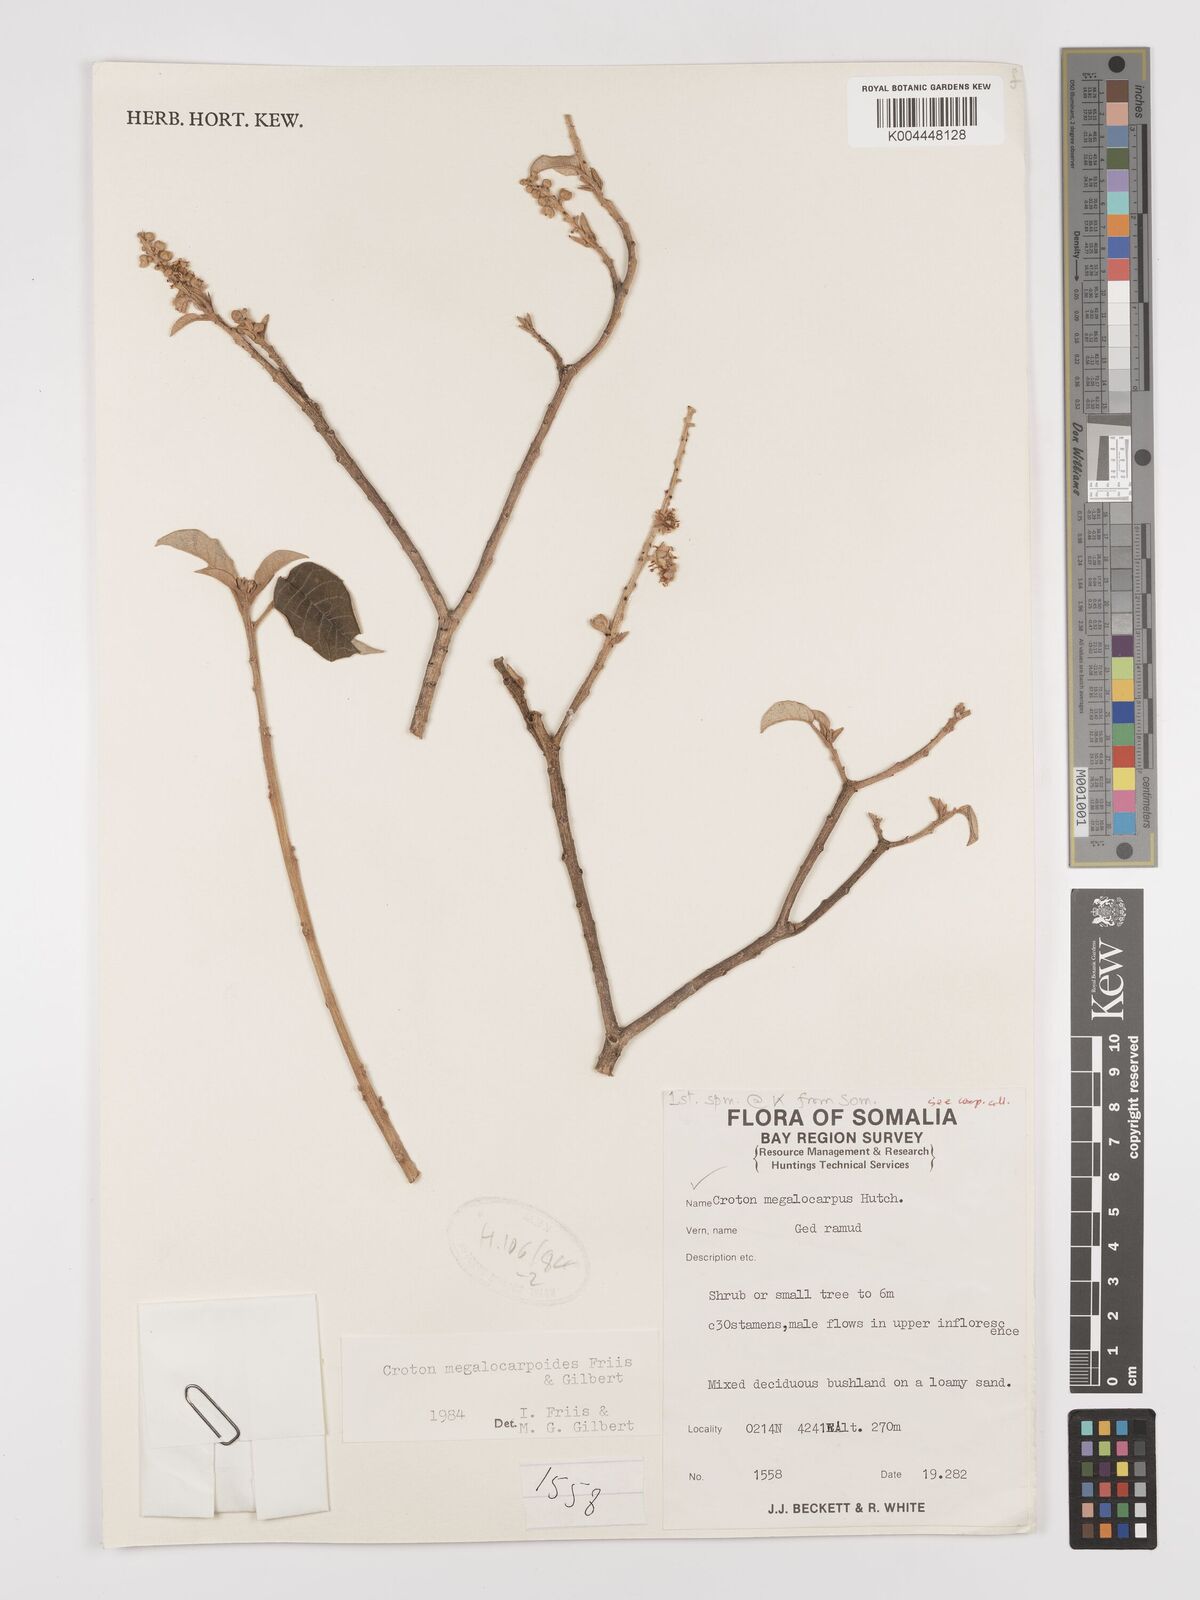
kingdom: Plantae
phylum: Tracheophyta
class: Magnoliopsida
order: Malpighiales
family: Euphorbiaceae
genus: Croton
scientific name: Croton megalocarpoides
